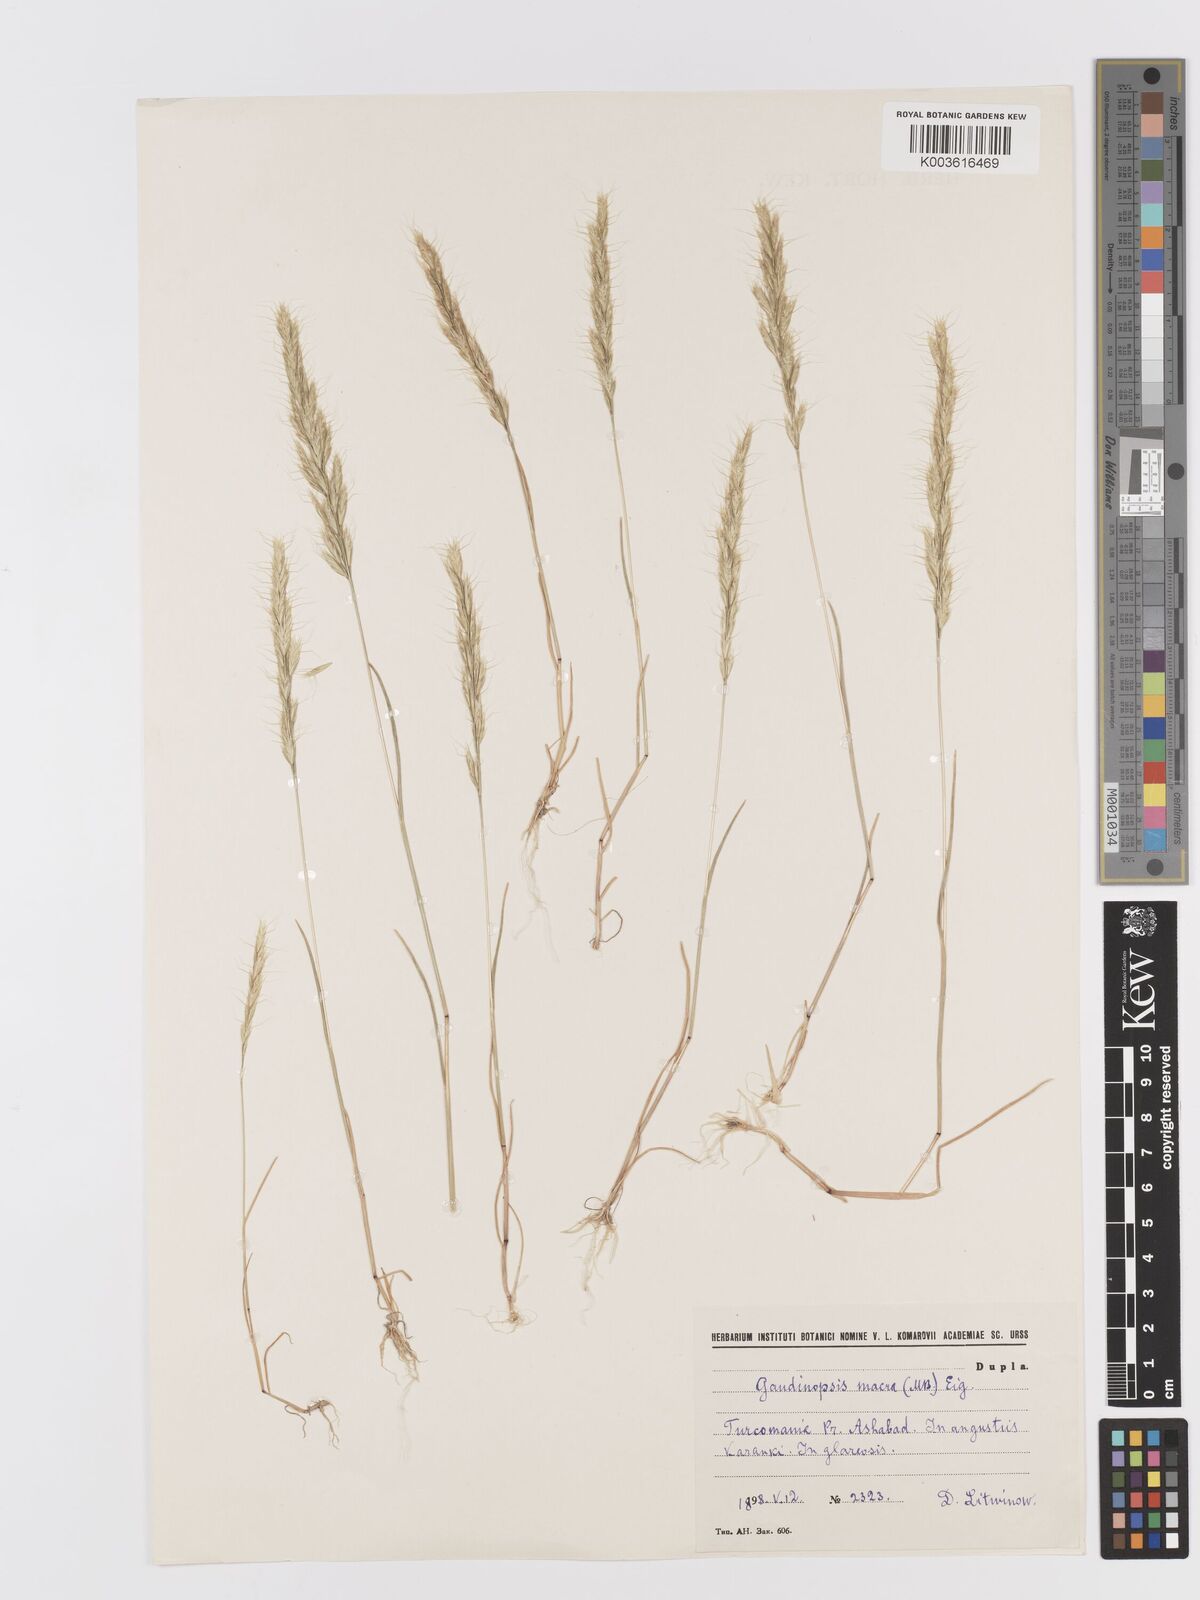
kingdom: Plantae
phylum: Tracheophyta
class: Liliopsida
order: Poales
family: Poaceae
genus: Ventenata
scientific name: Ventenata macra
